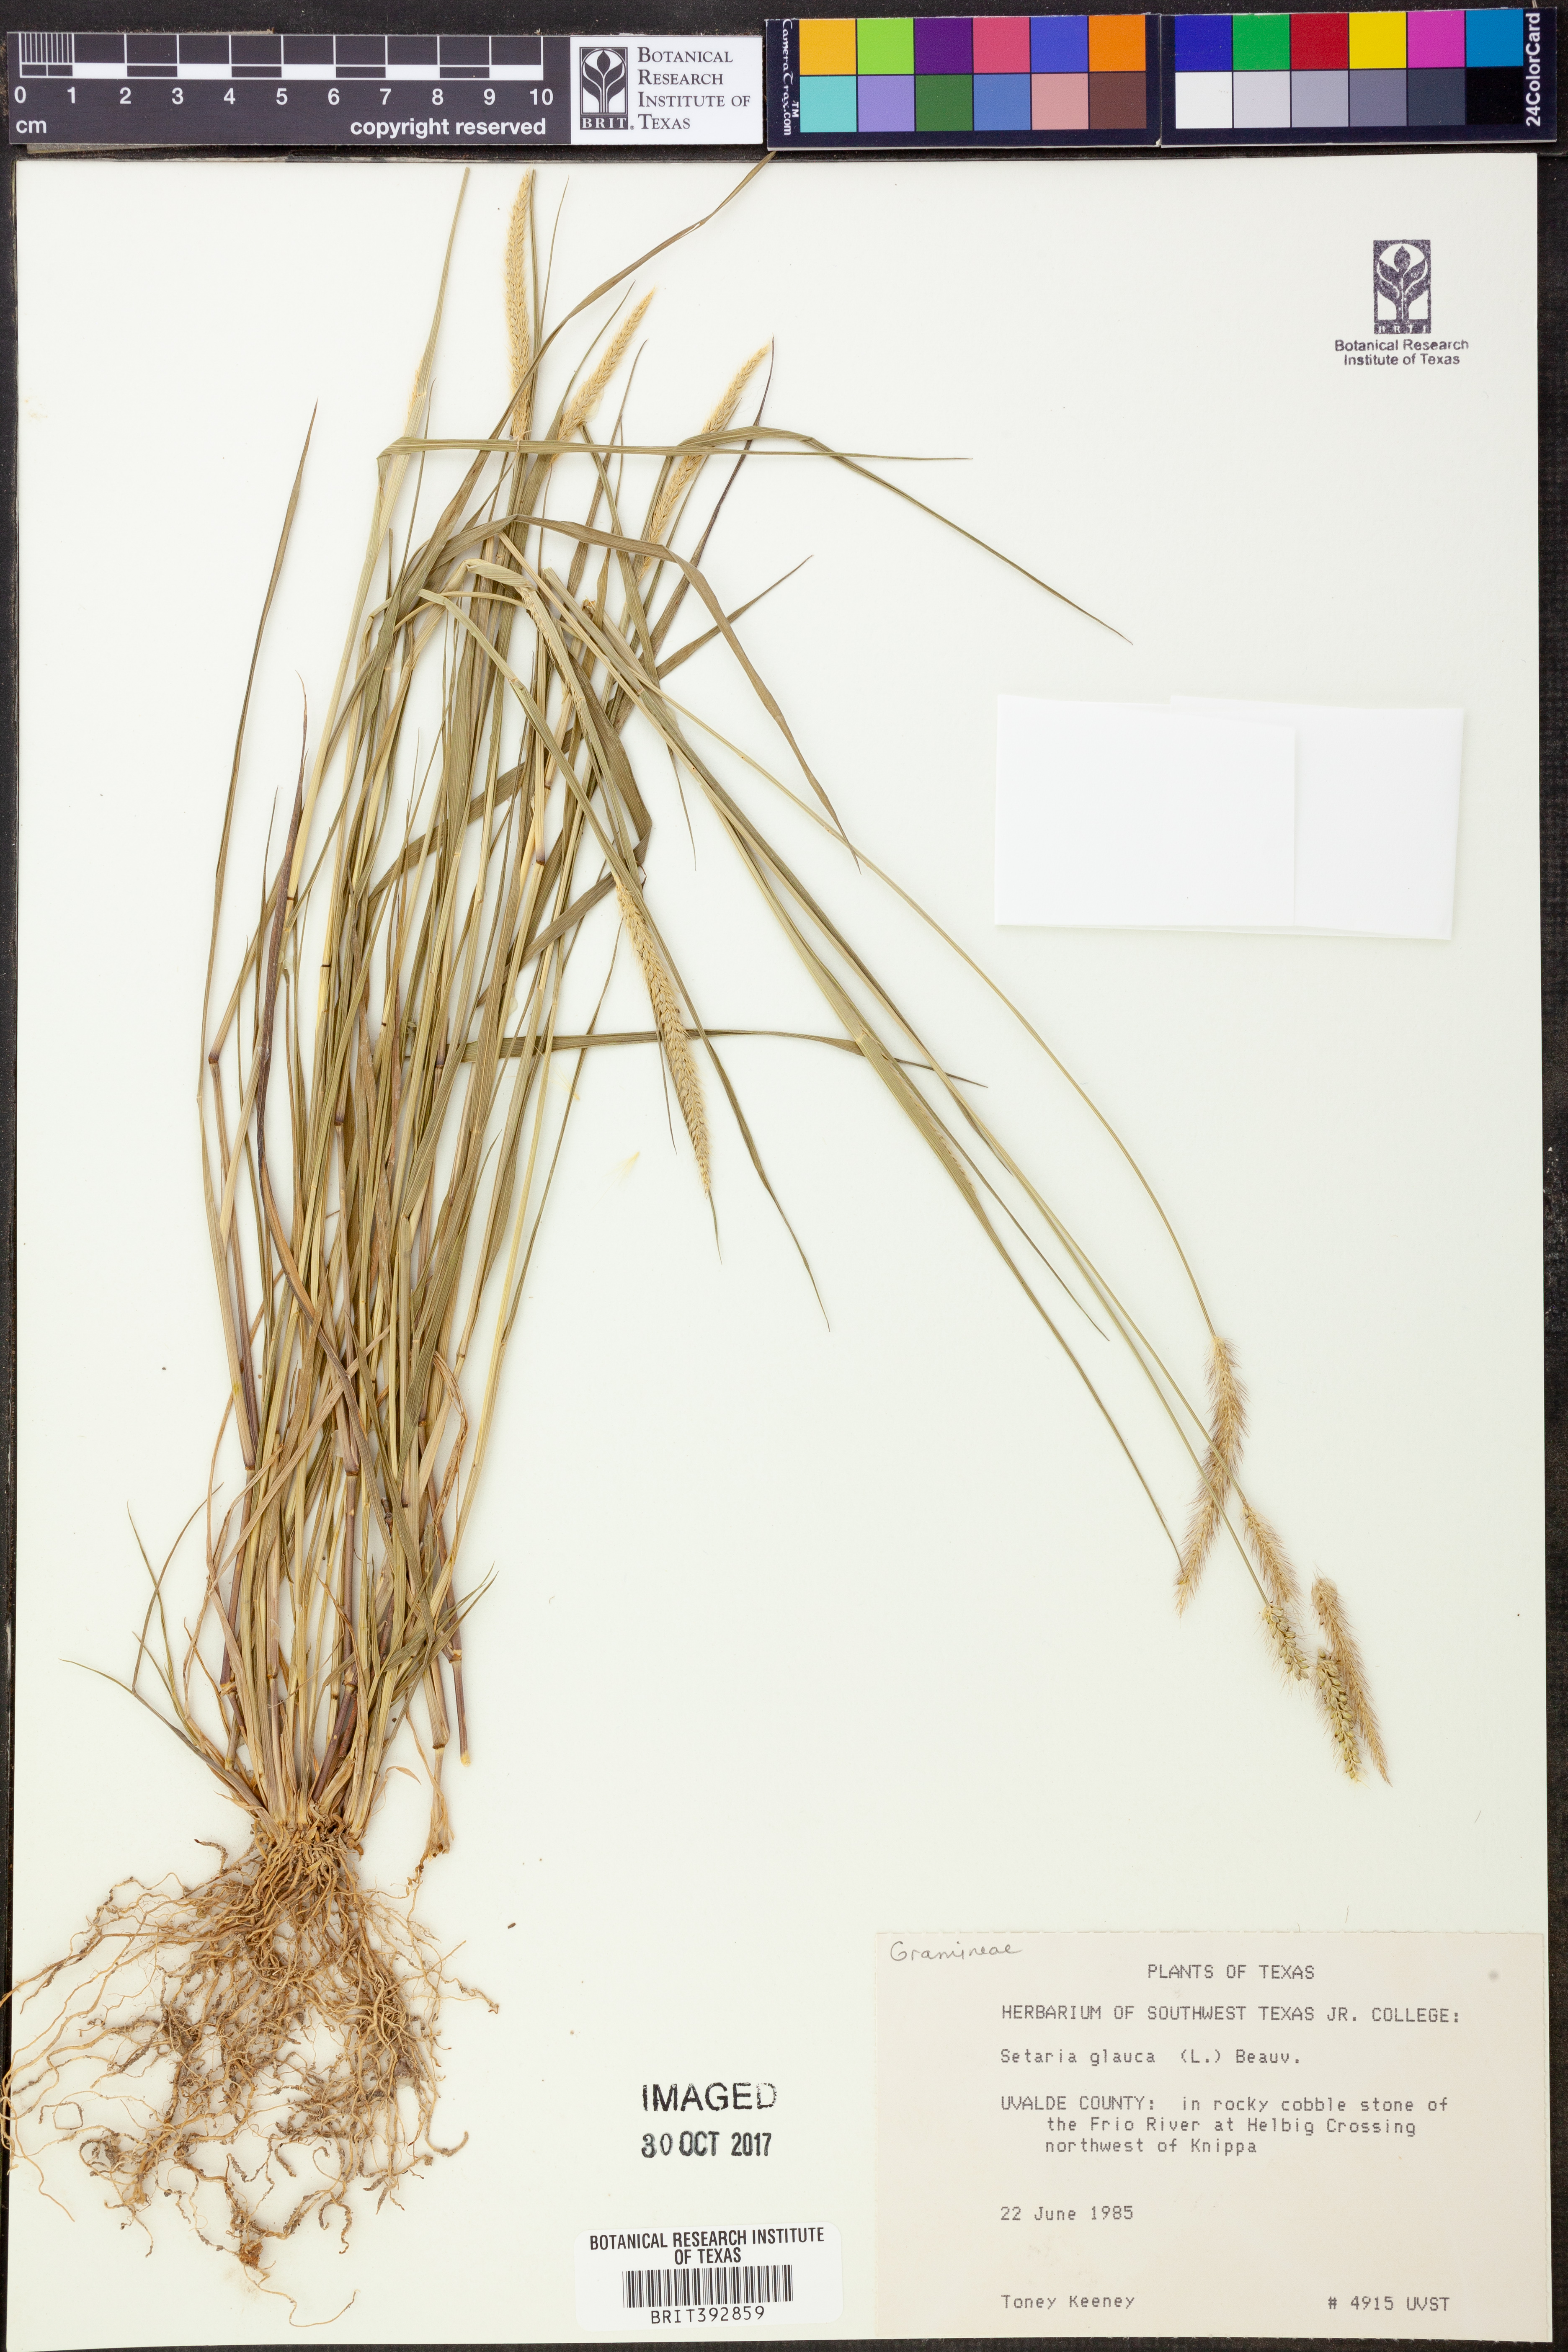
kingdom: Plantae
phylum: Tracheophyta
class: Liliopsida
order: Poales
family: Poaceae
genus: Cenchrus
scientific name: Cenchrus americanus
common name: Pearl millet
